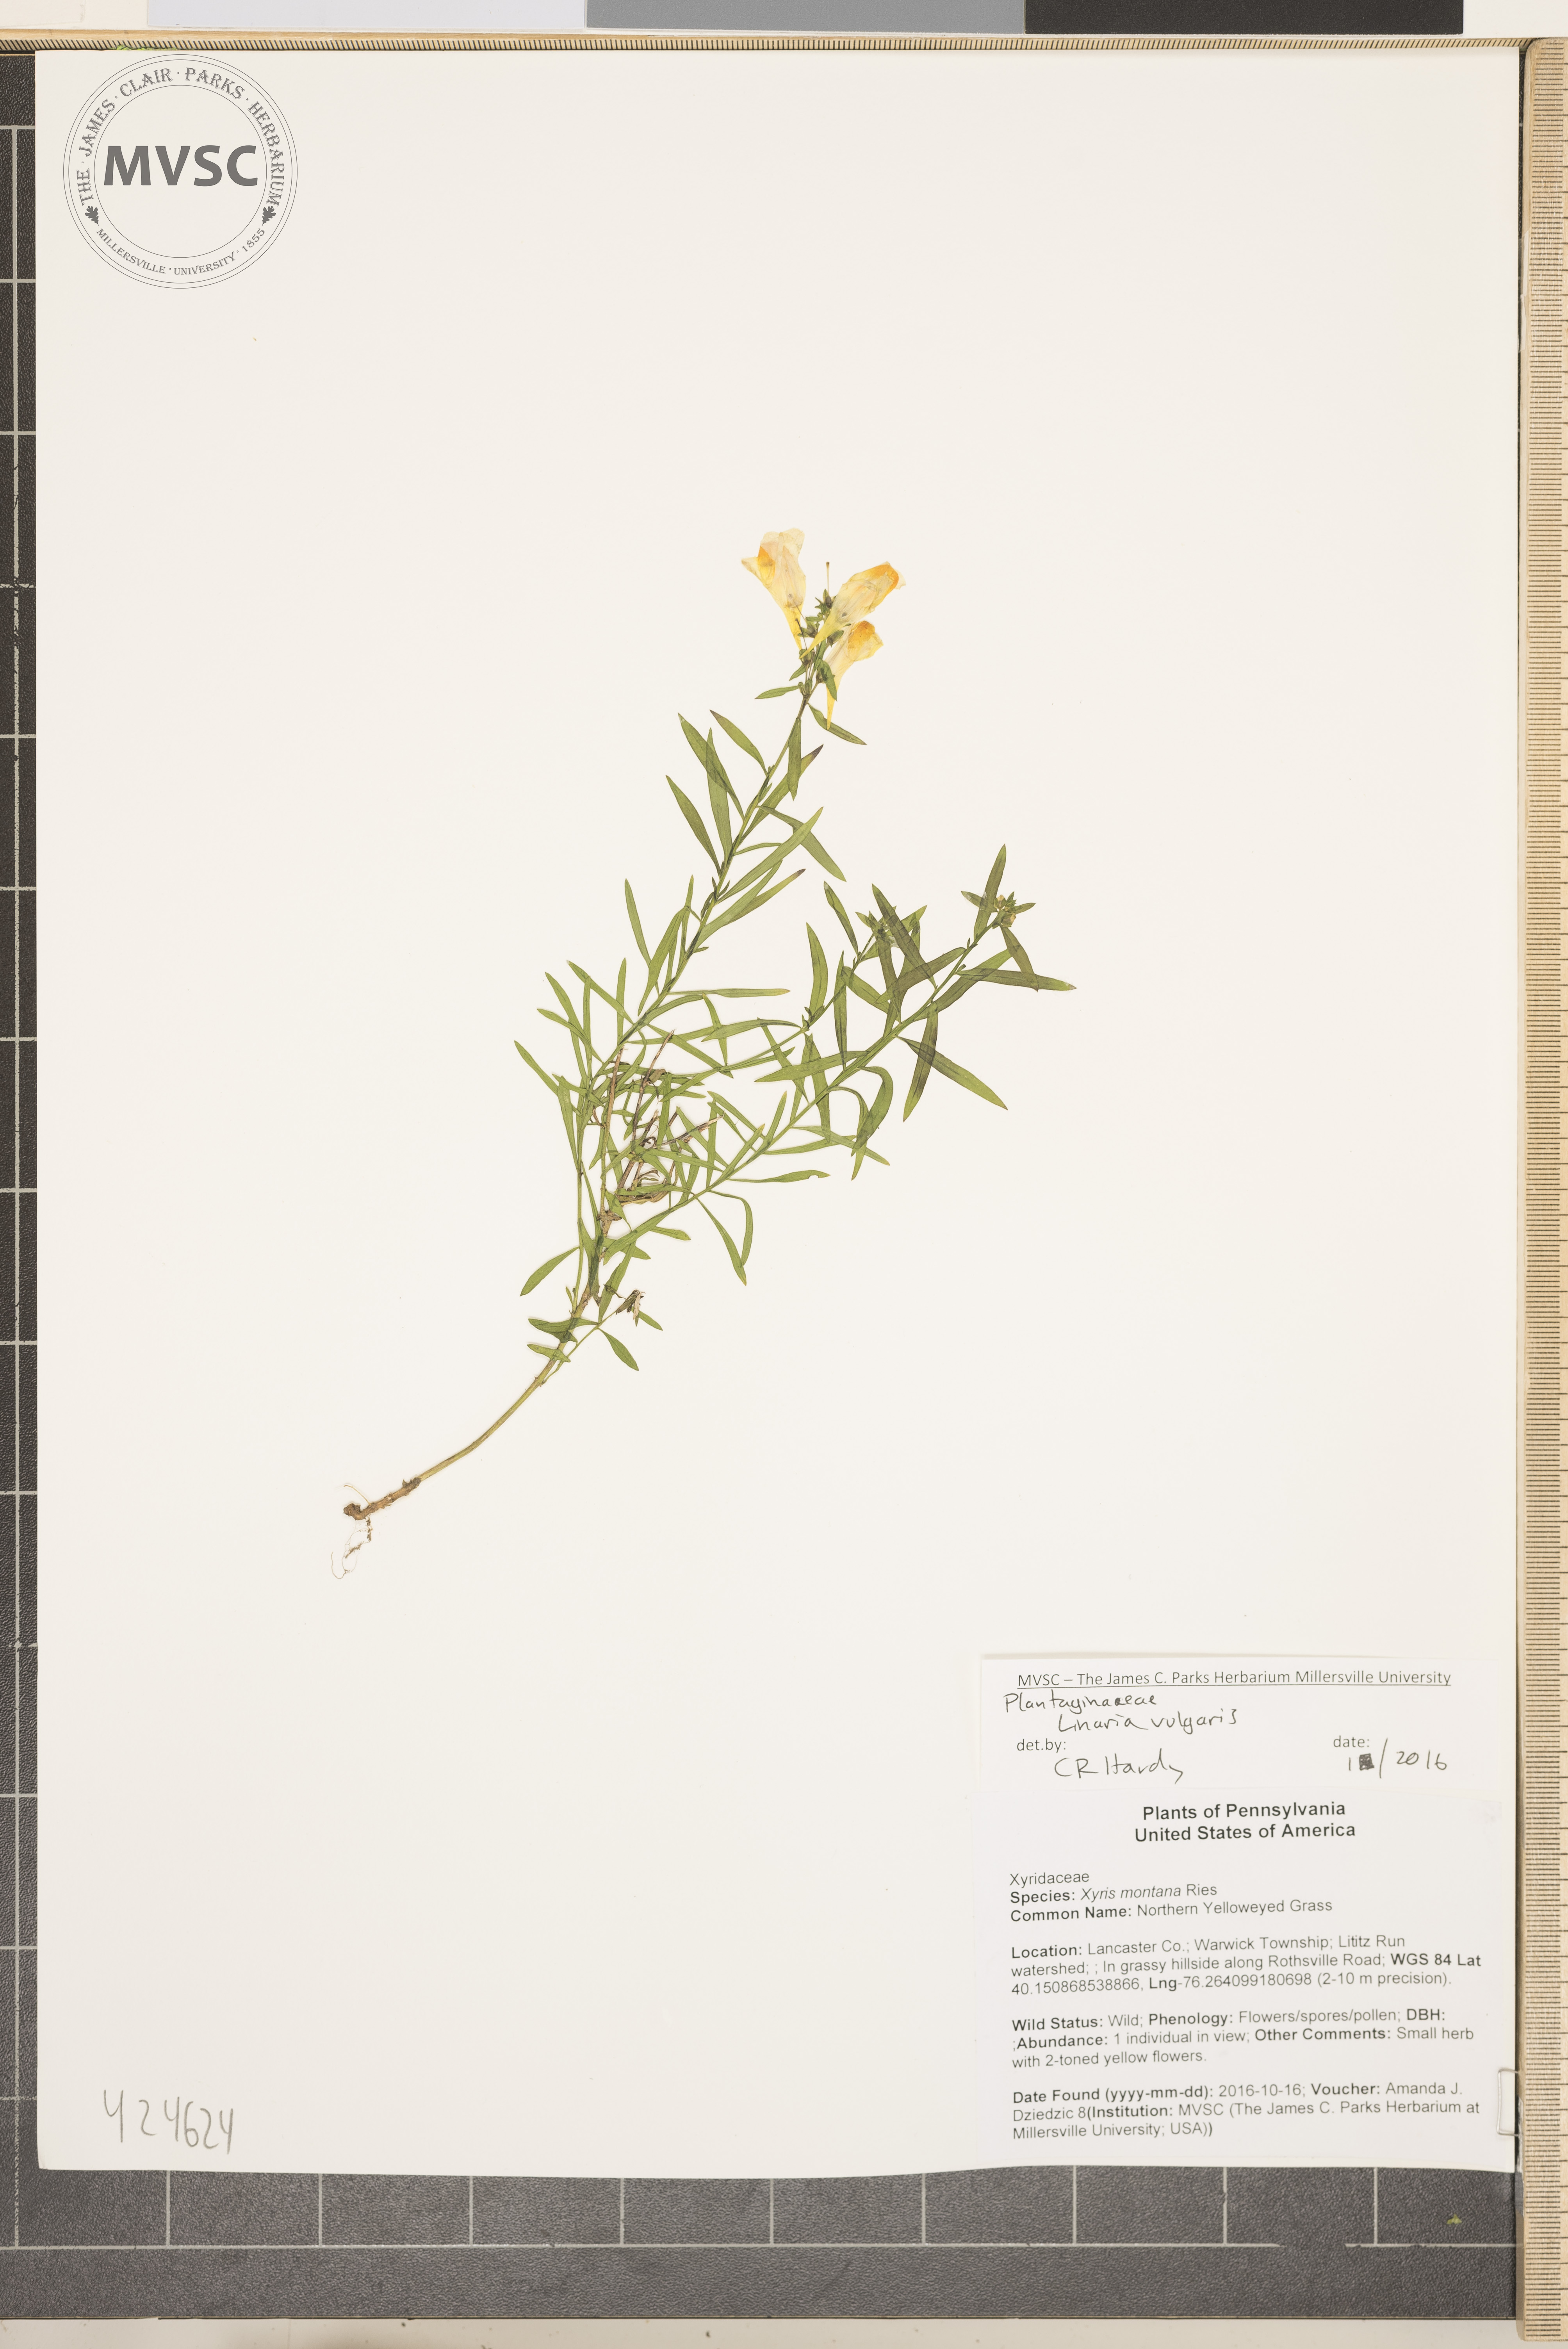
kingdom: Plantae
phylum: Tracheophyta
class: Magnoliopsida
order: Lamiales
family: Plantaginaceae
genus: Linaria
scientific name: Linaria vulgaris
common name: Butter-and-eggs
